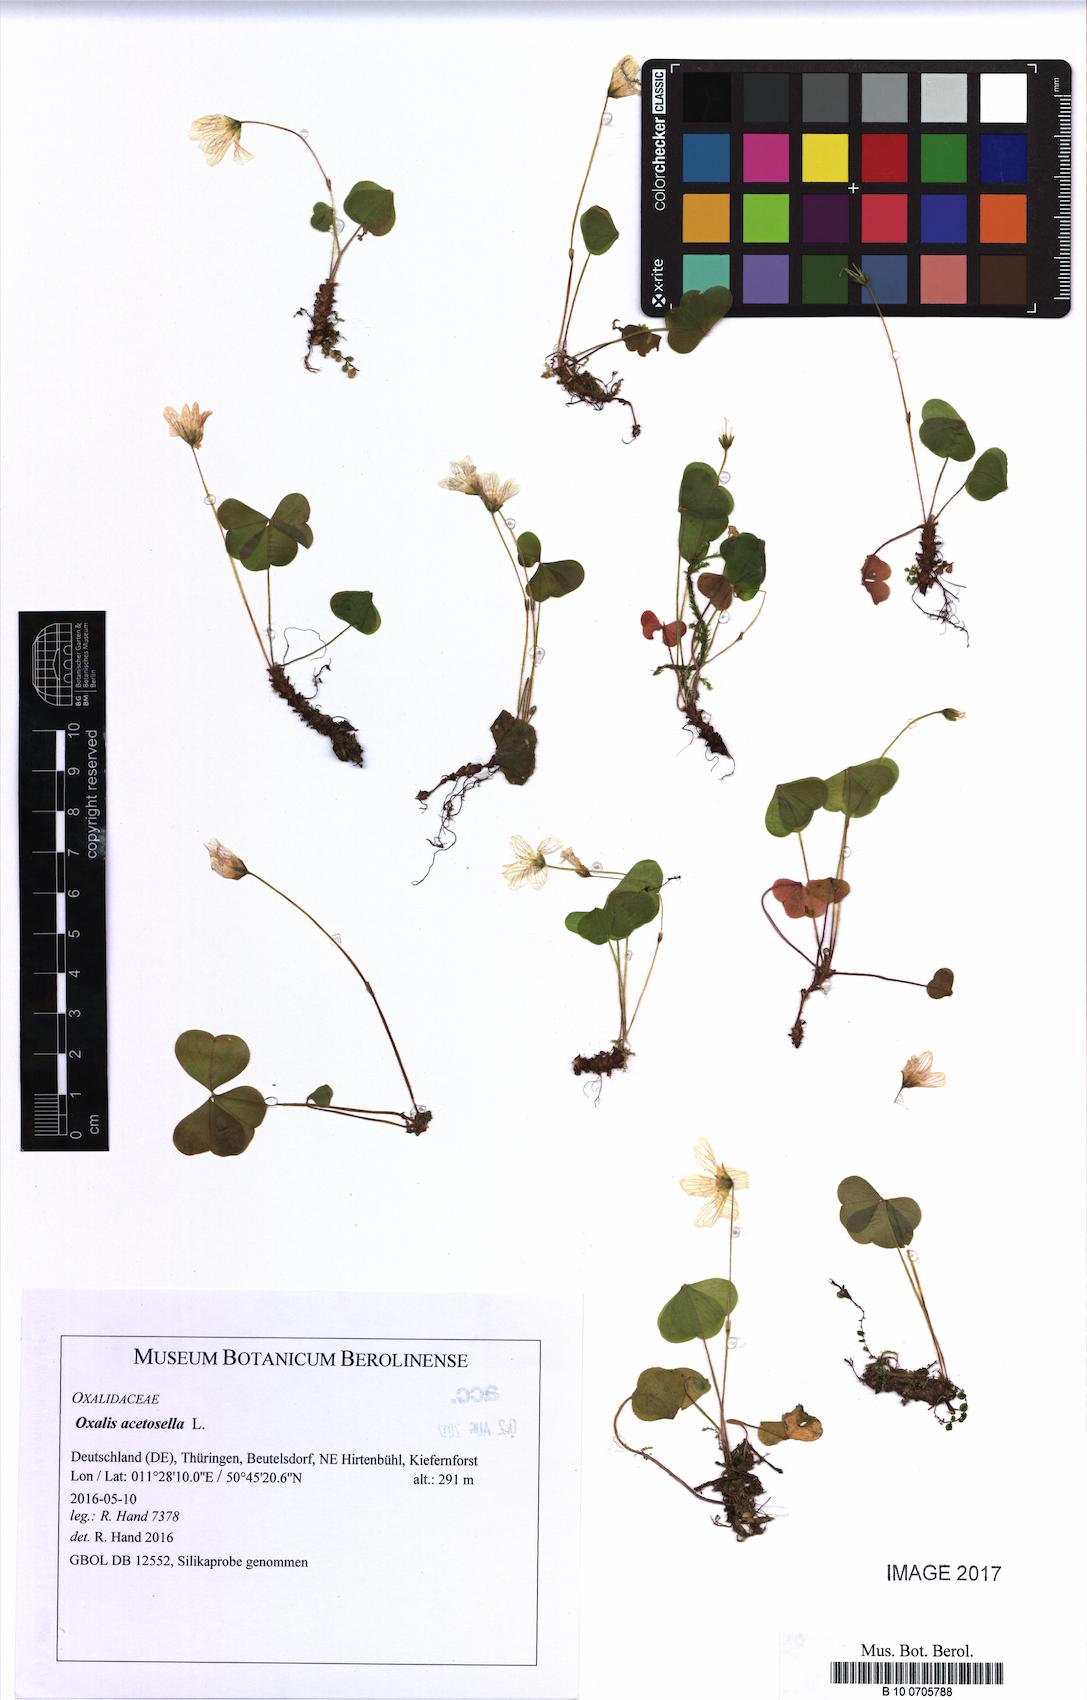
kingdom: Plantae
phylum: Tracheophyta
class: Magnoliopsida
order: Oxalidales
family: Oxalidaceae
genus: Oxalis
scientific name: Oxalis acetosella
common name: Wood-sorrel
